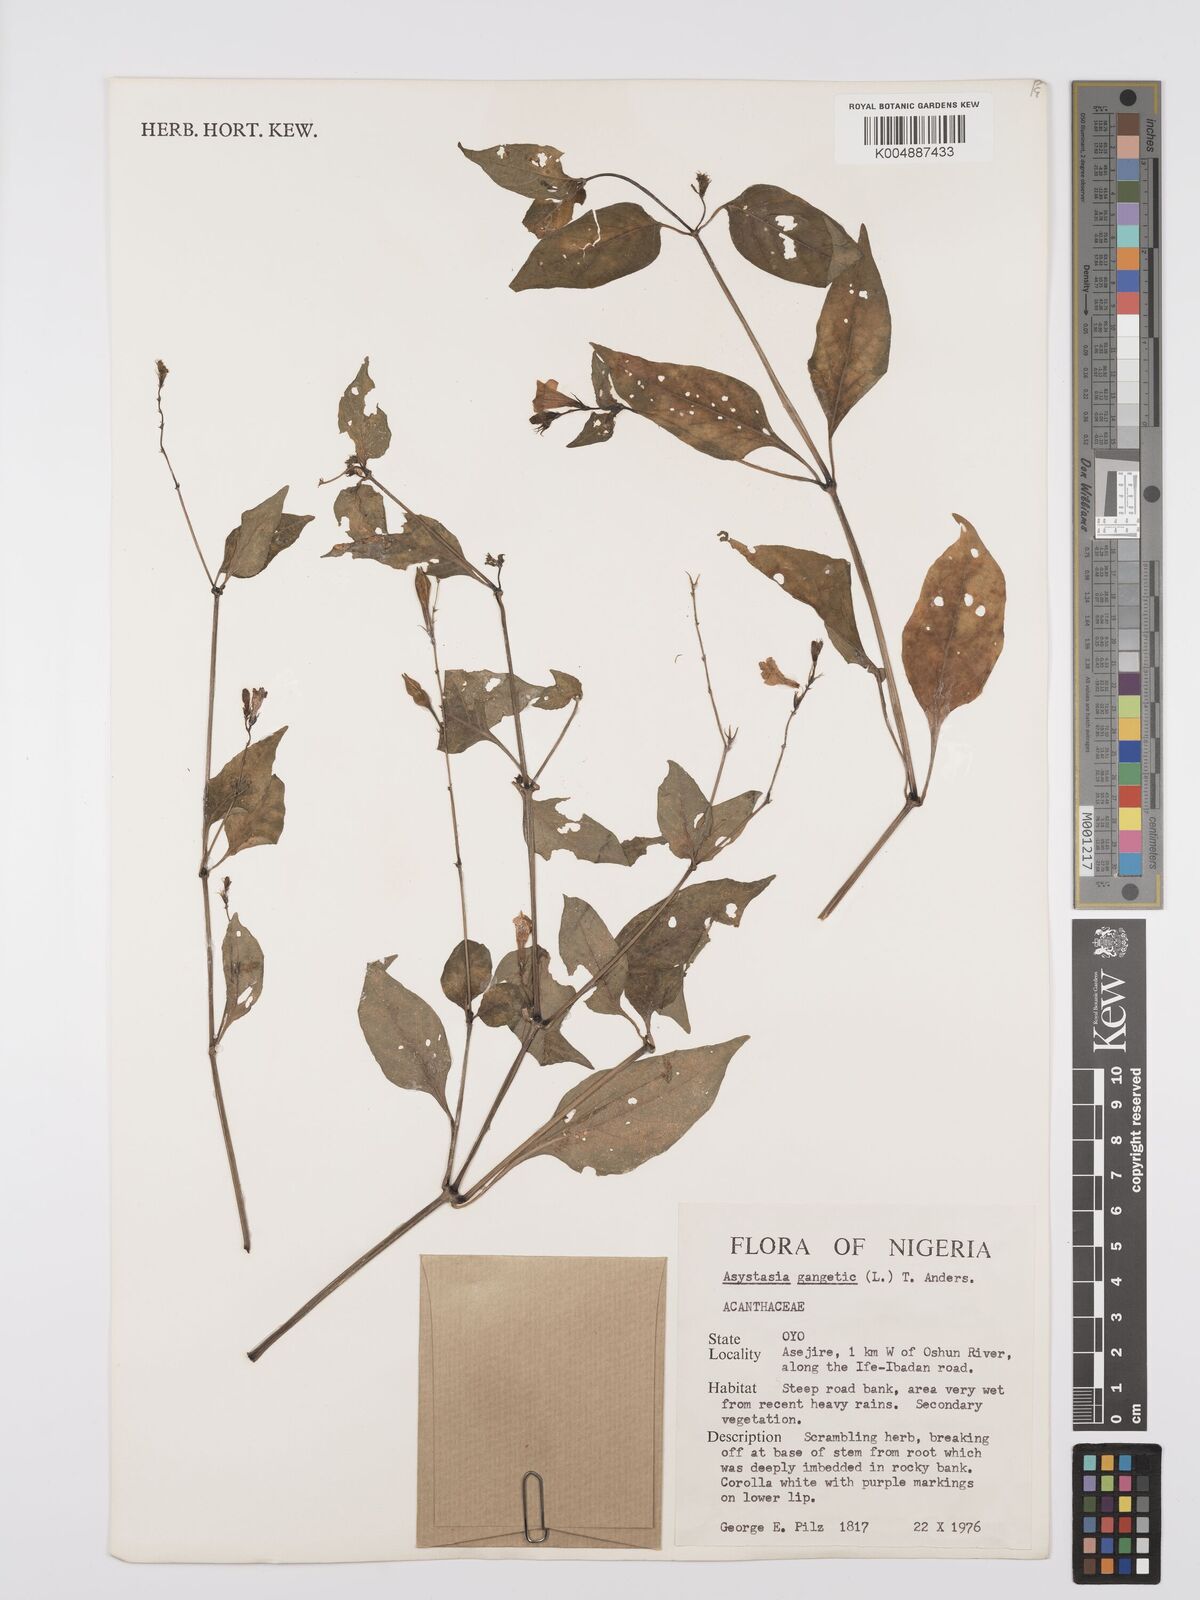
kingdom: Plantae
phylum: Tracheophyta
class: Magnoliopsida
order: Lamiales
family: Acanthaceae
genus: Asystasia
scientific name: Asystasia gangetica
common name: Chinese violet
